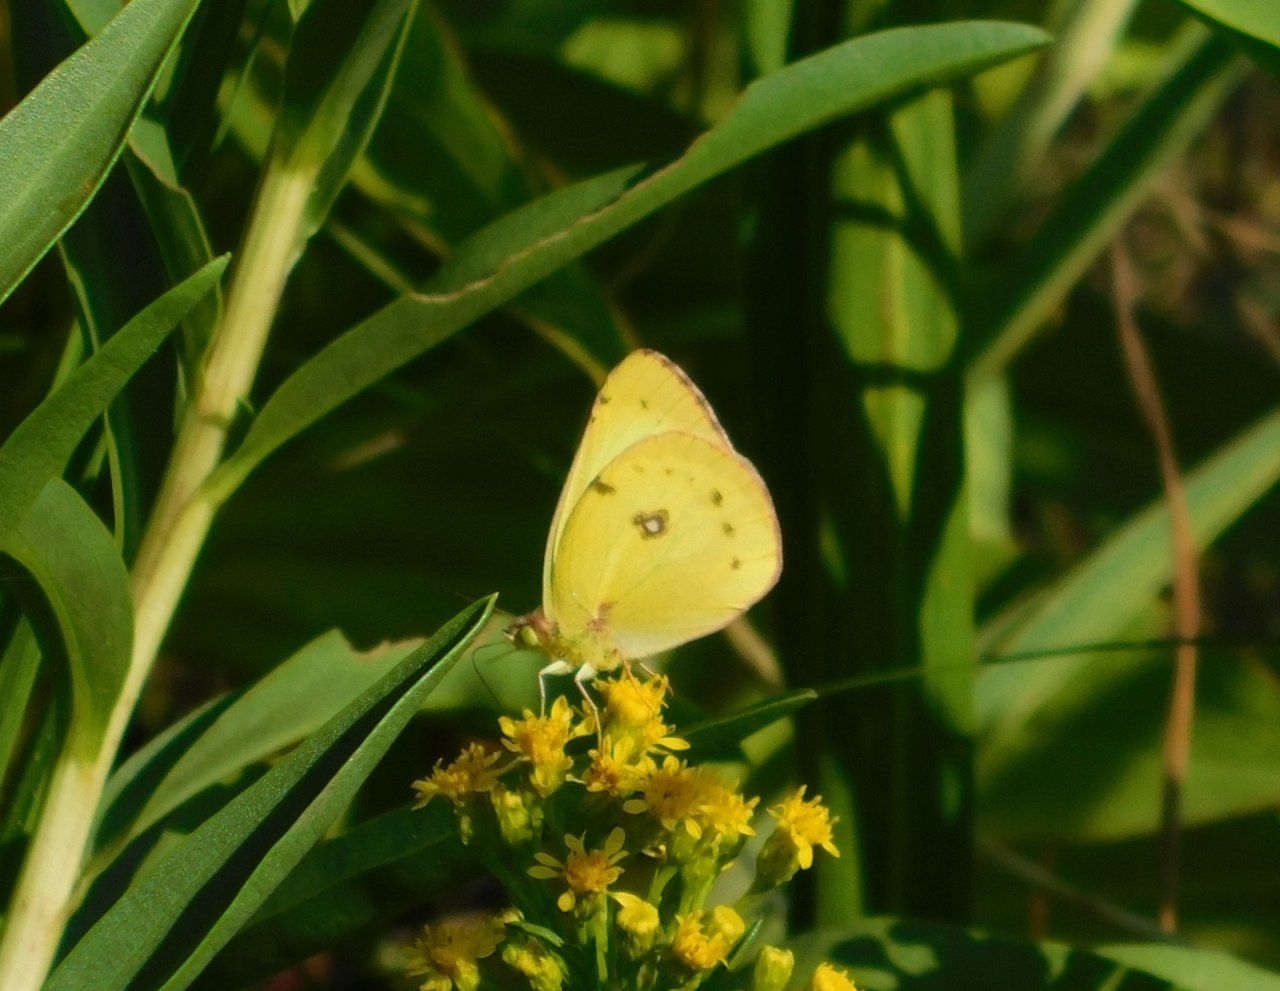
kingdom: Animalia
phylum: Arthropoda
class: Insecta
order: Lepidoptera
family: Pieridae
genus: Colias
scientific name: Colias philodice
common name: Clouded Sulphur
